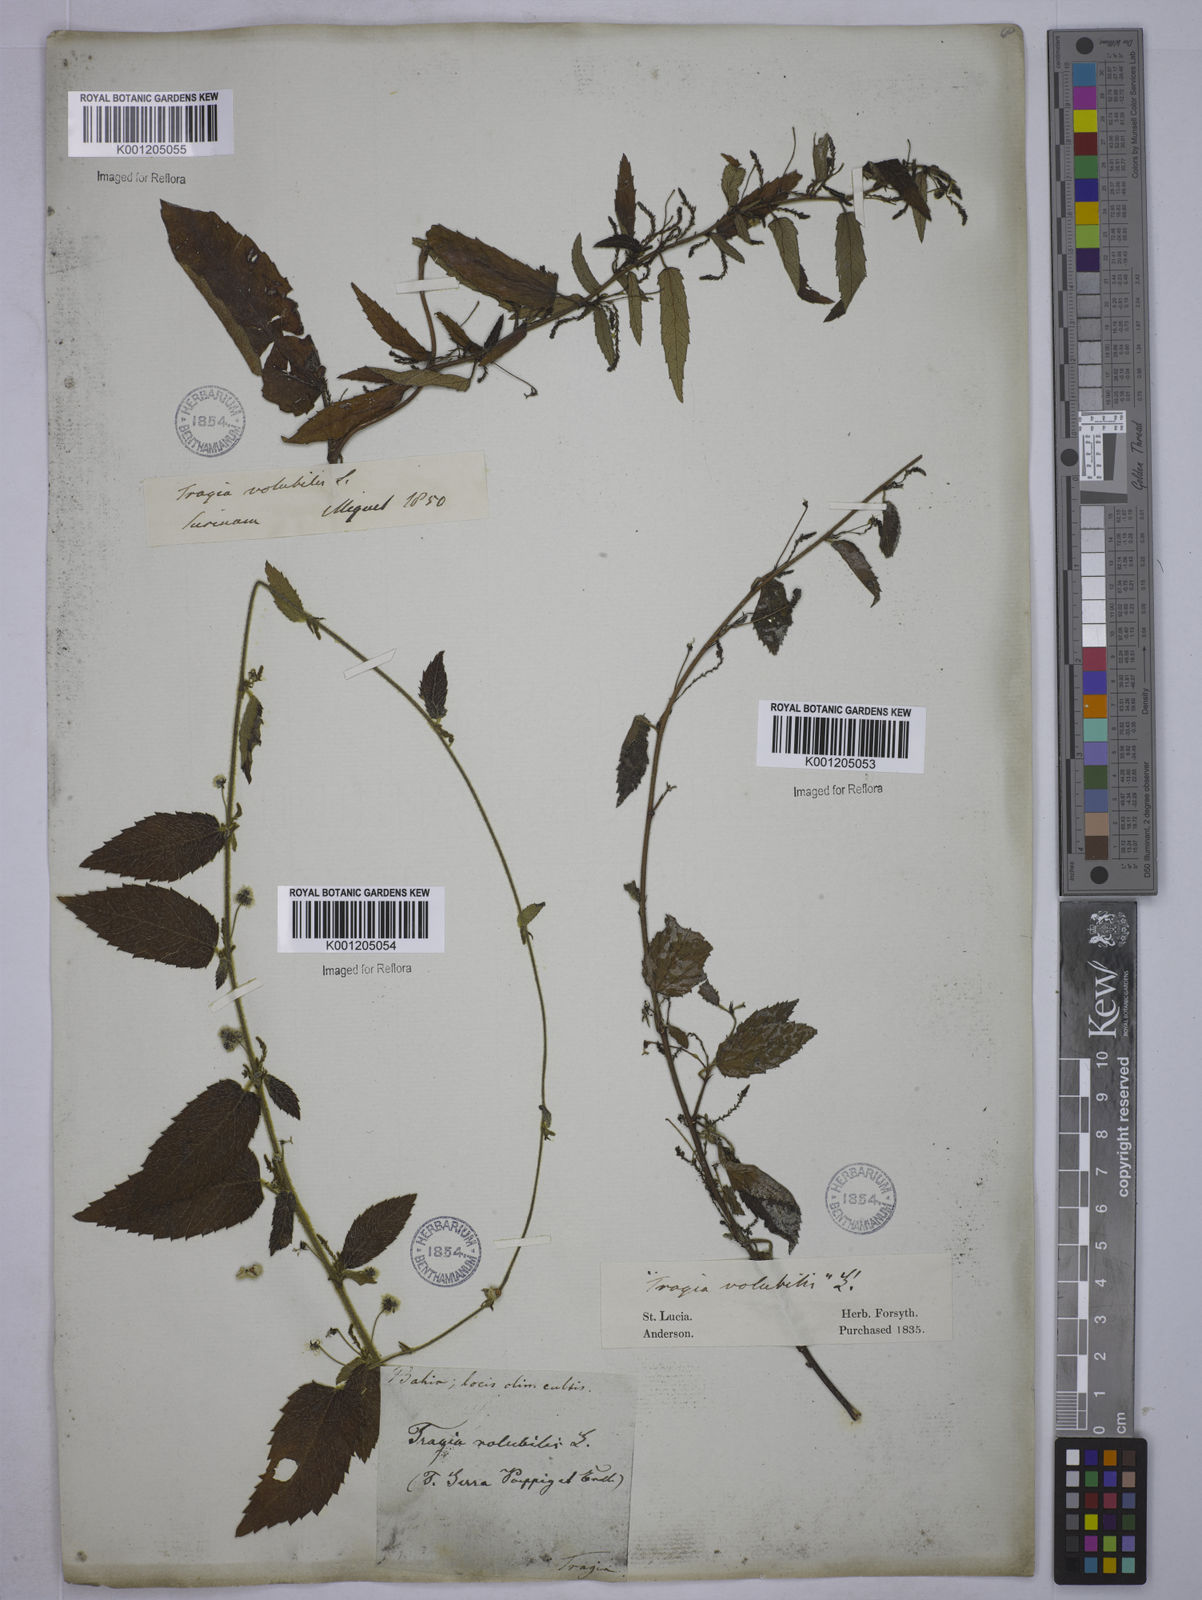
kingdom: Plantae
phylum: Tracheophyta
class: Magnoliopsida
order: Malpighiales
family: Euphorbiaceae
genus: Tragia
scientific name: Tragia volubilis
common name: Twining cow-itch
